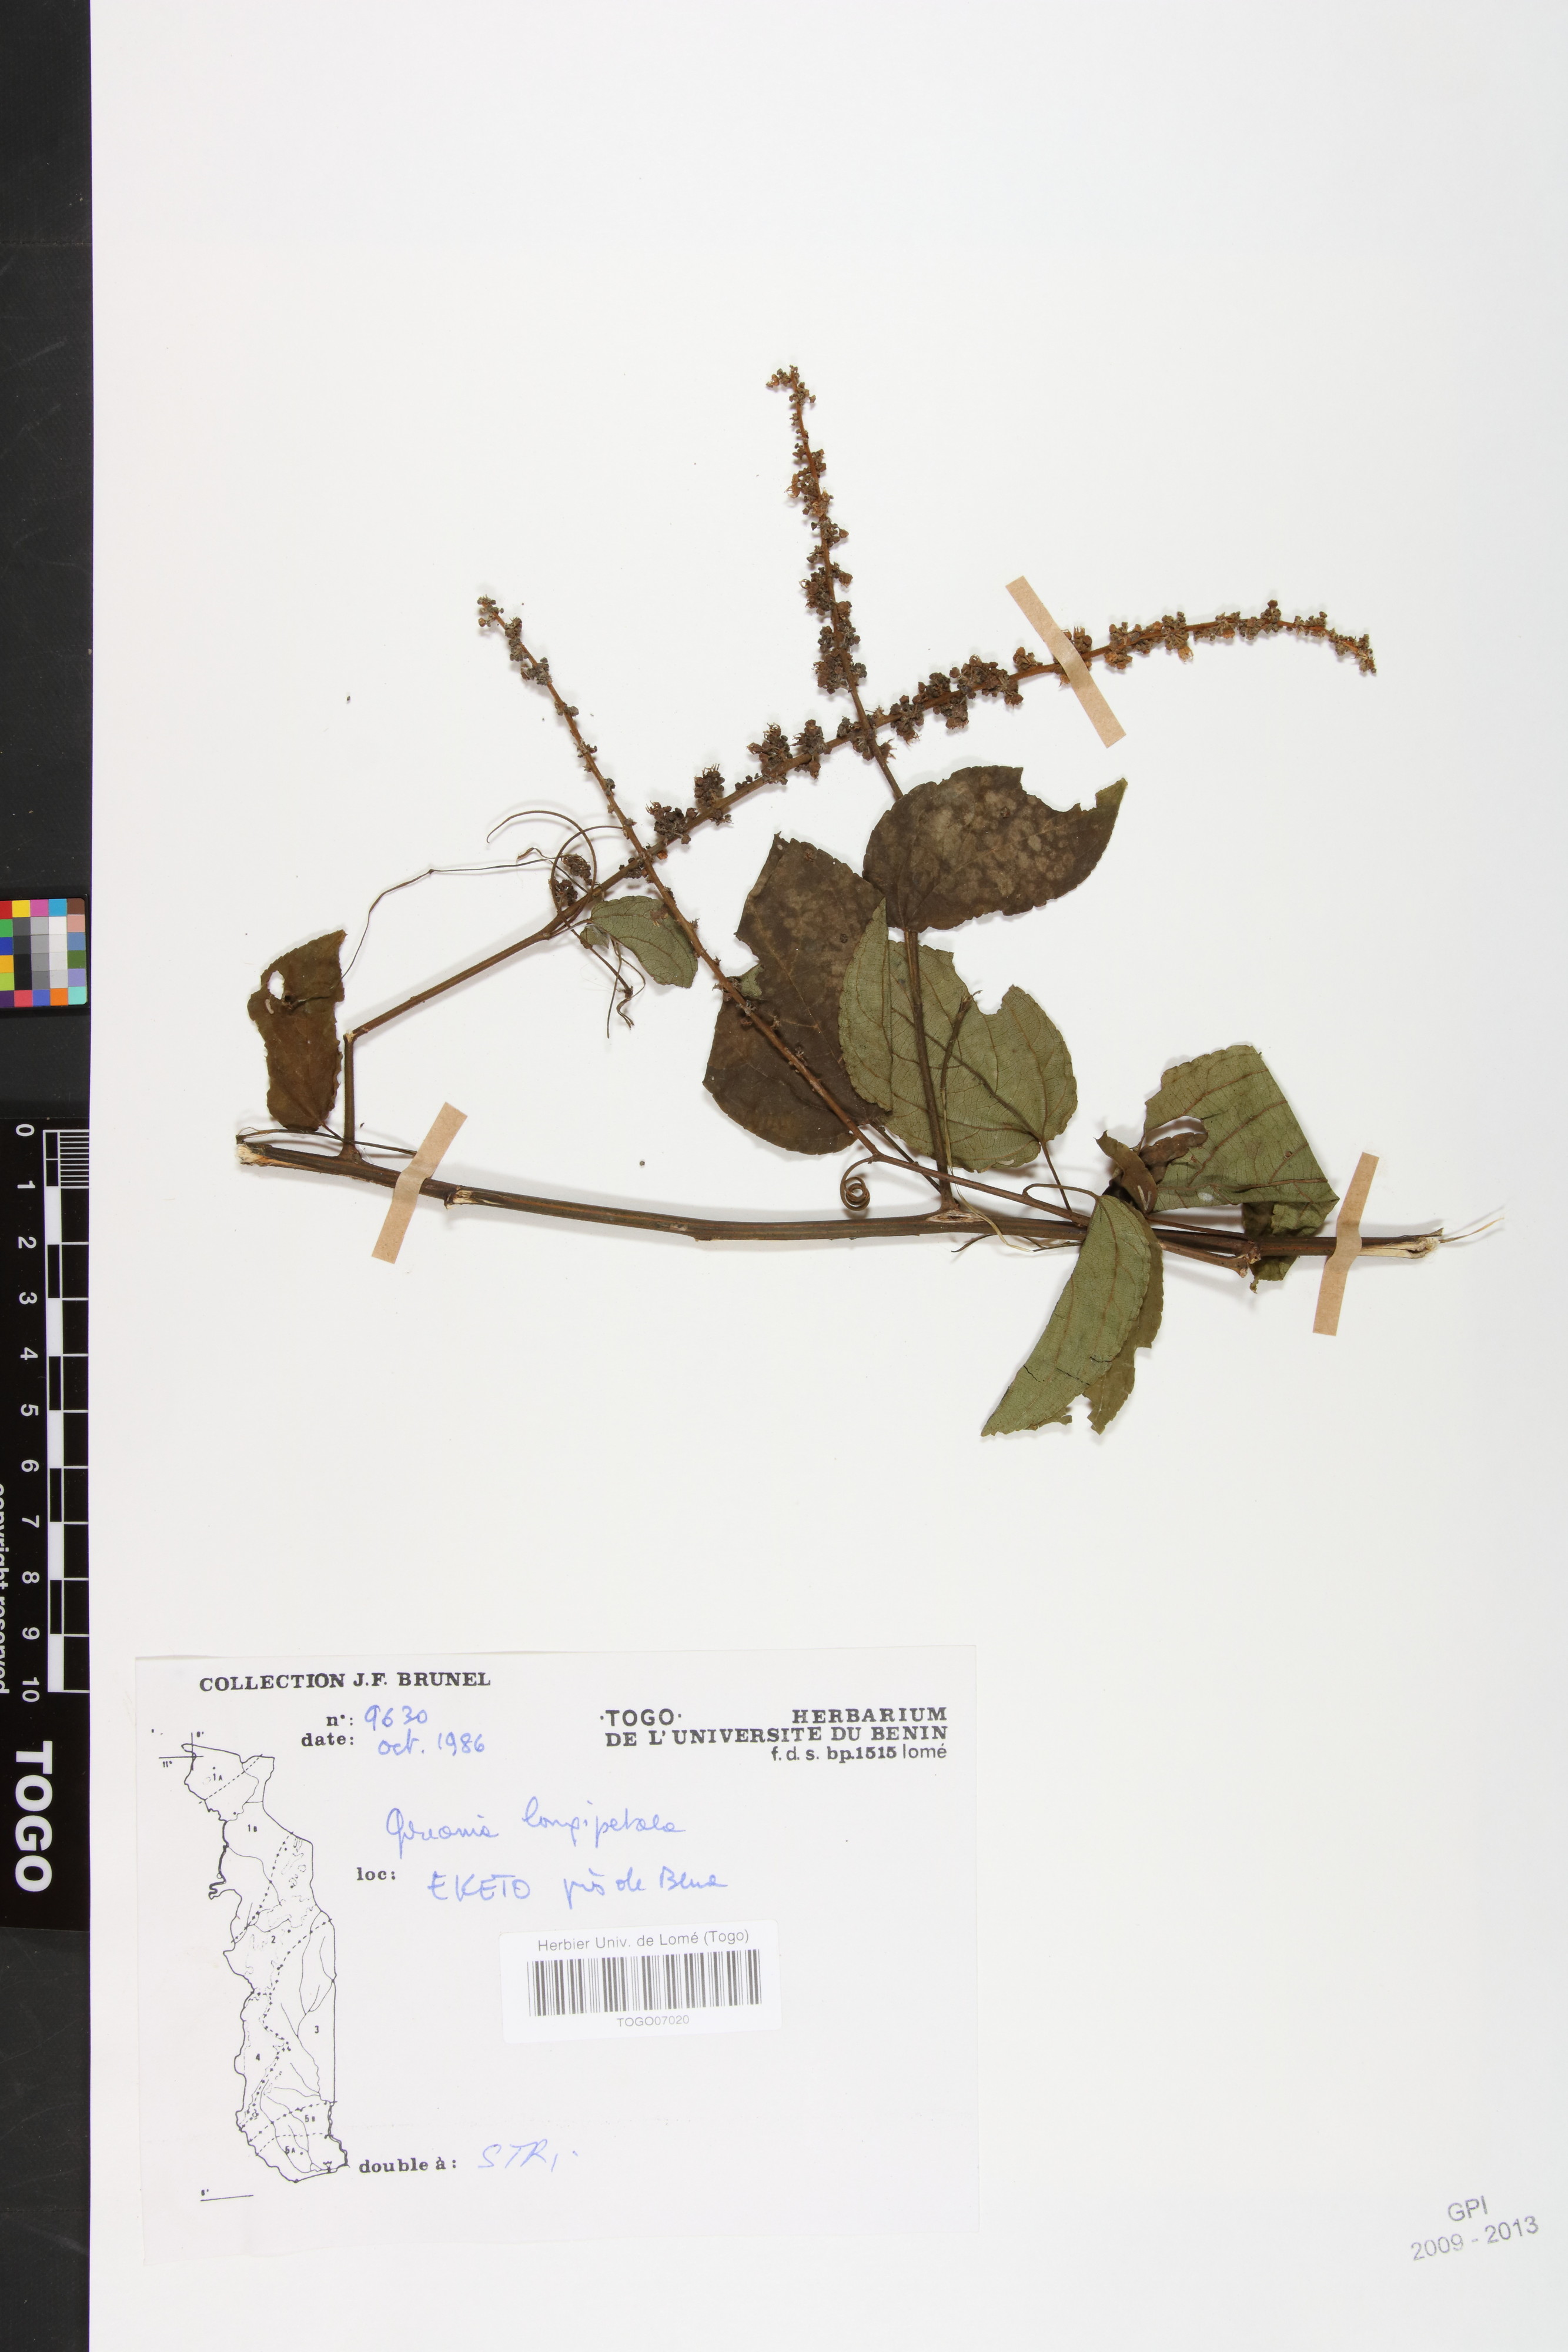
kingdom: Plantae
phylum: Tracheophyta
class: Magnoliopsida
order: Rosales
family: Rhamnaceae
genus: Gouania
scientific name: Gouania longipetala
